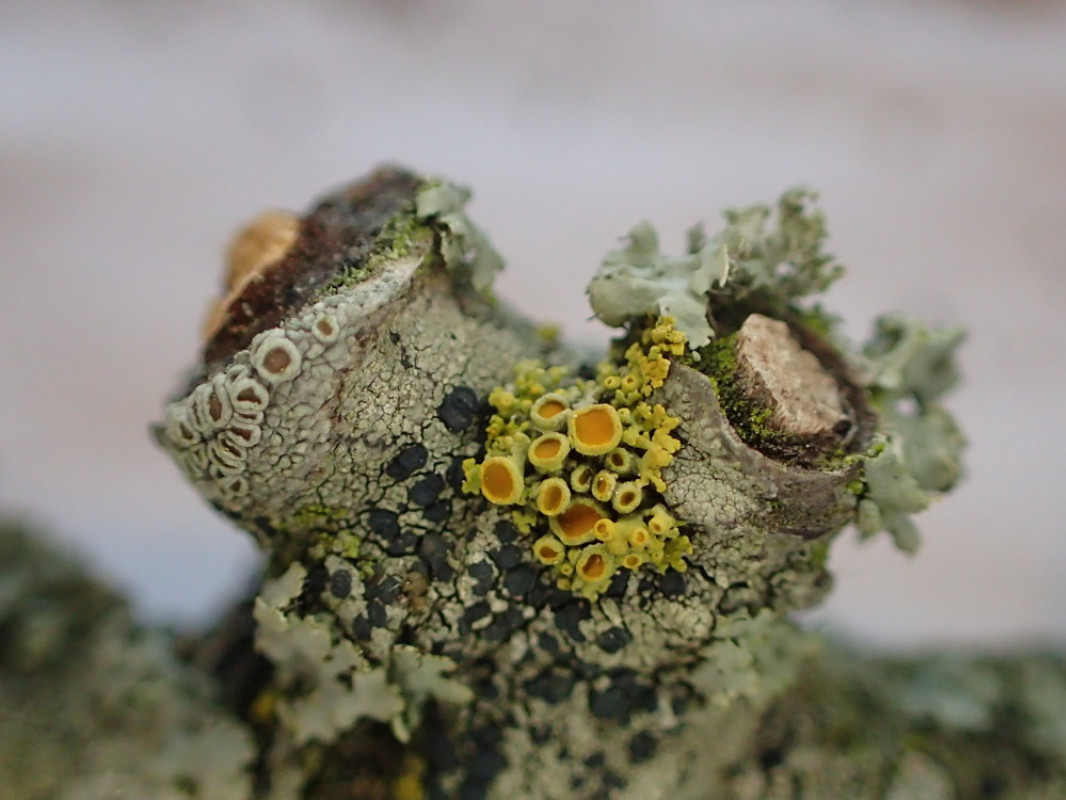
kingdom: Fungi
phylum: Ascomycota
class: Lecanoromycetes
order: Teloschistales
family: Teloschistaceae
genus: Polycauliona
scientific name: Polycauliona polycarpa
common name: mangefrugtet orangelav
